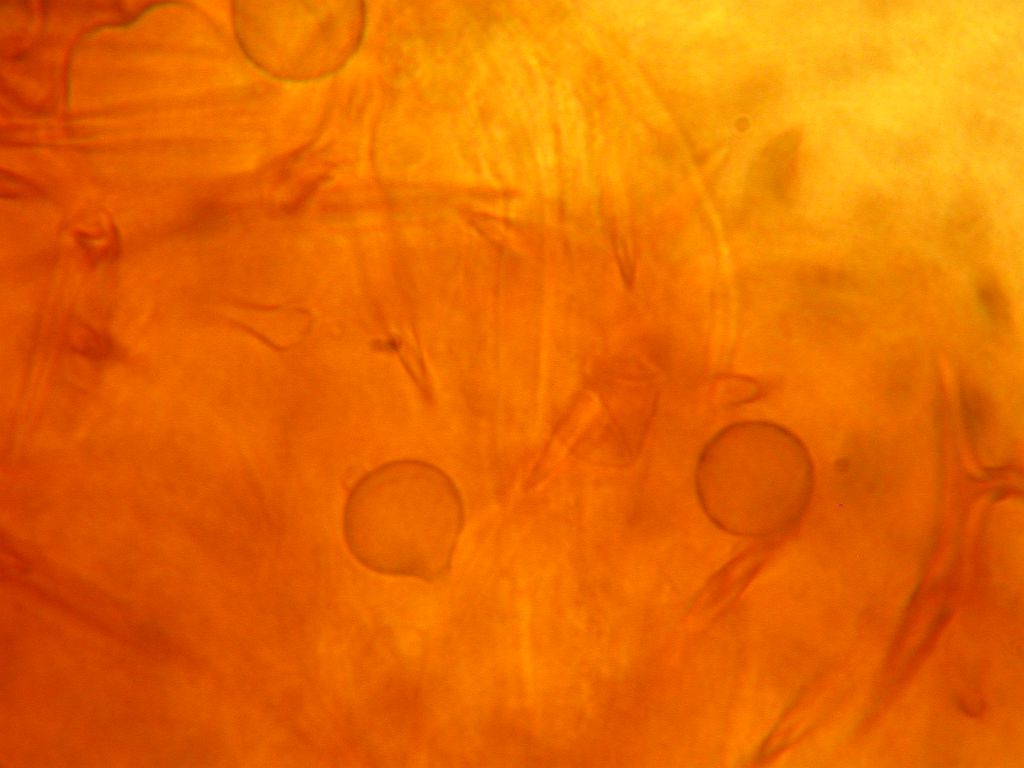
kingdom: Fungi
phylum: Basidiomycota
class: Agaricomycetes
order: Russulales
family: Peniophoraceae
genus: Asterostroma
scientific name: Asterostroma laxum
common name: lysrandet stjerneskind
